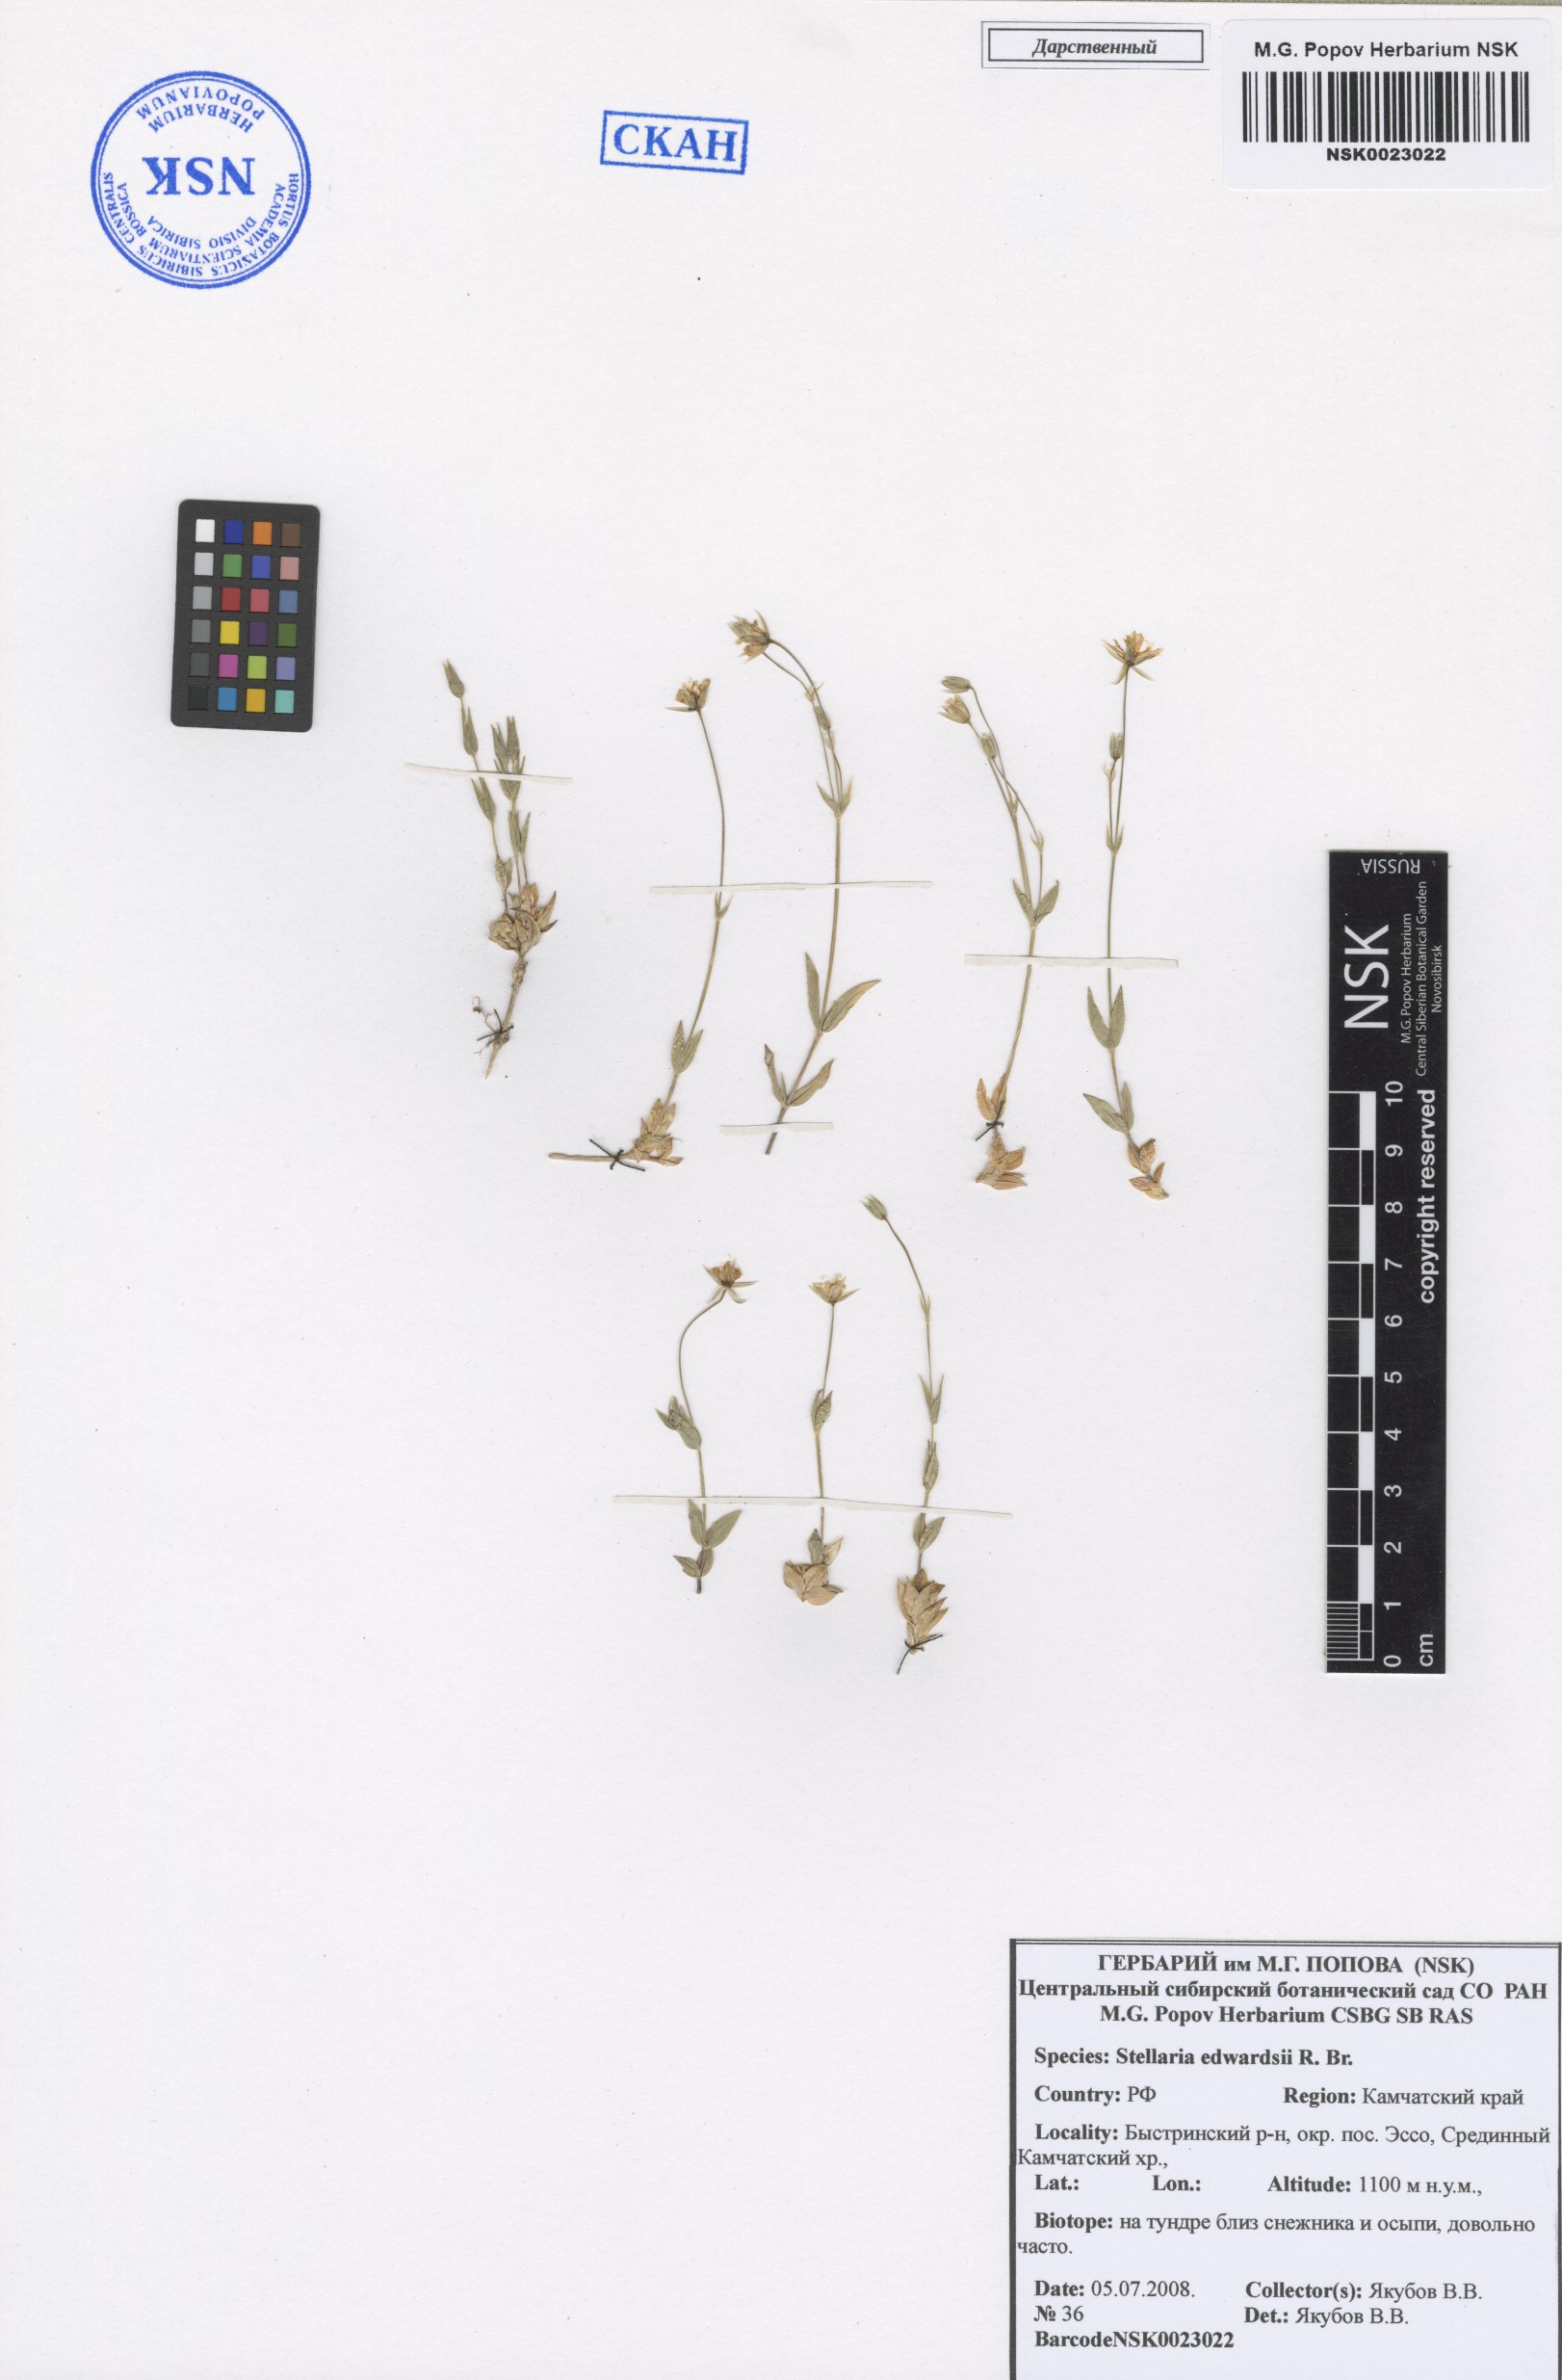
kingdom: Plantae
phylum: Tracheophyta
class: Magnoliopsida
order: Caryophyllales
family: Caryophyllaceae
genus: Stellaria
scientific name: Stellaria edwardsii
